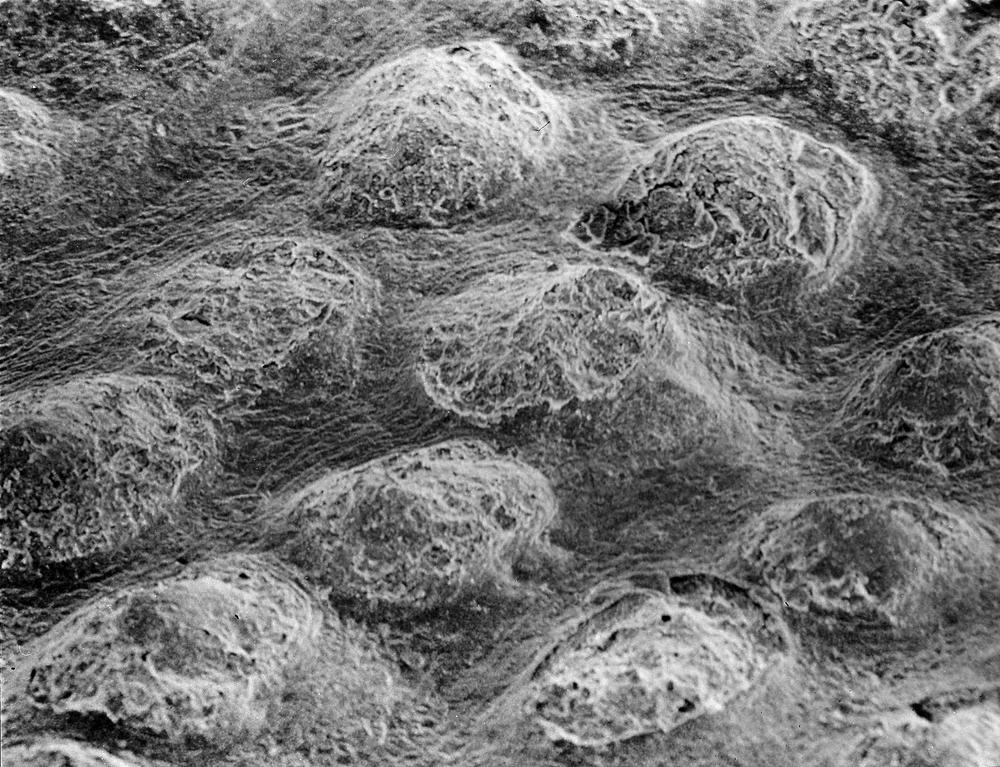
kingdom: Animalia
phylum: Brachiopoda
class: Rhynchonellata
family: Saukrodictyidae
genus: Saukrodictya
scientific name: Saukrodictya
